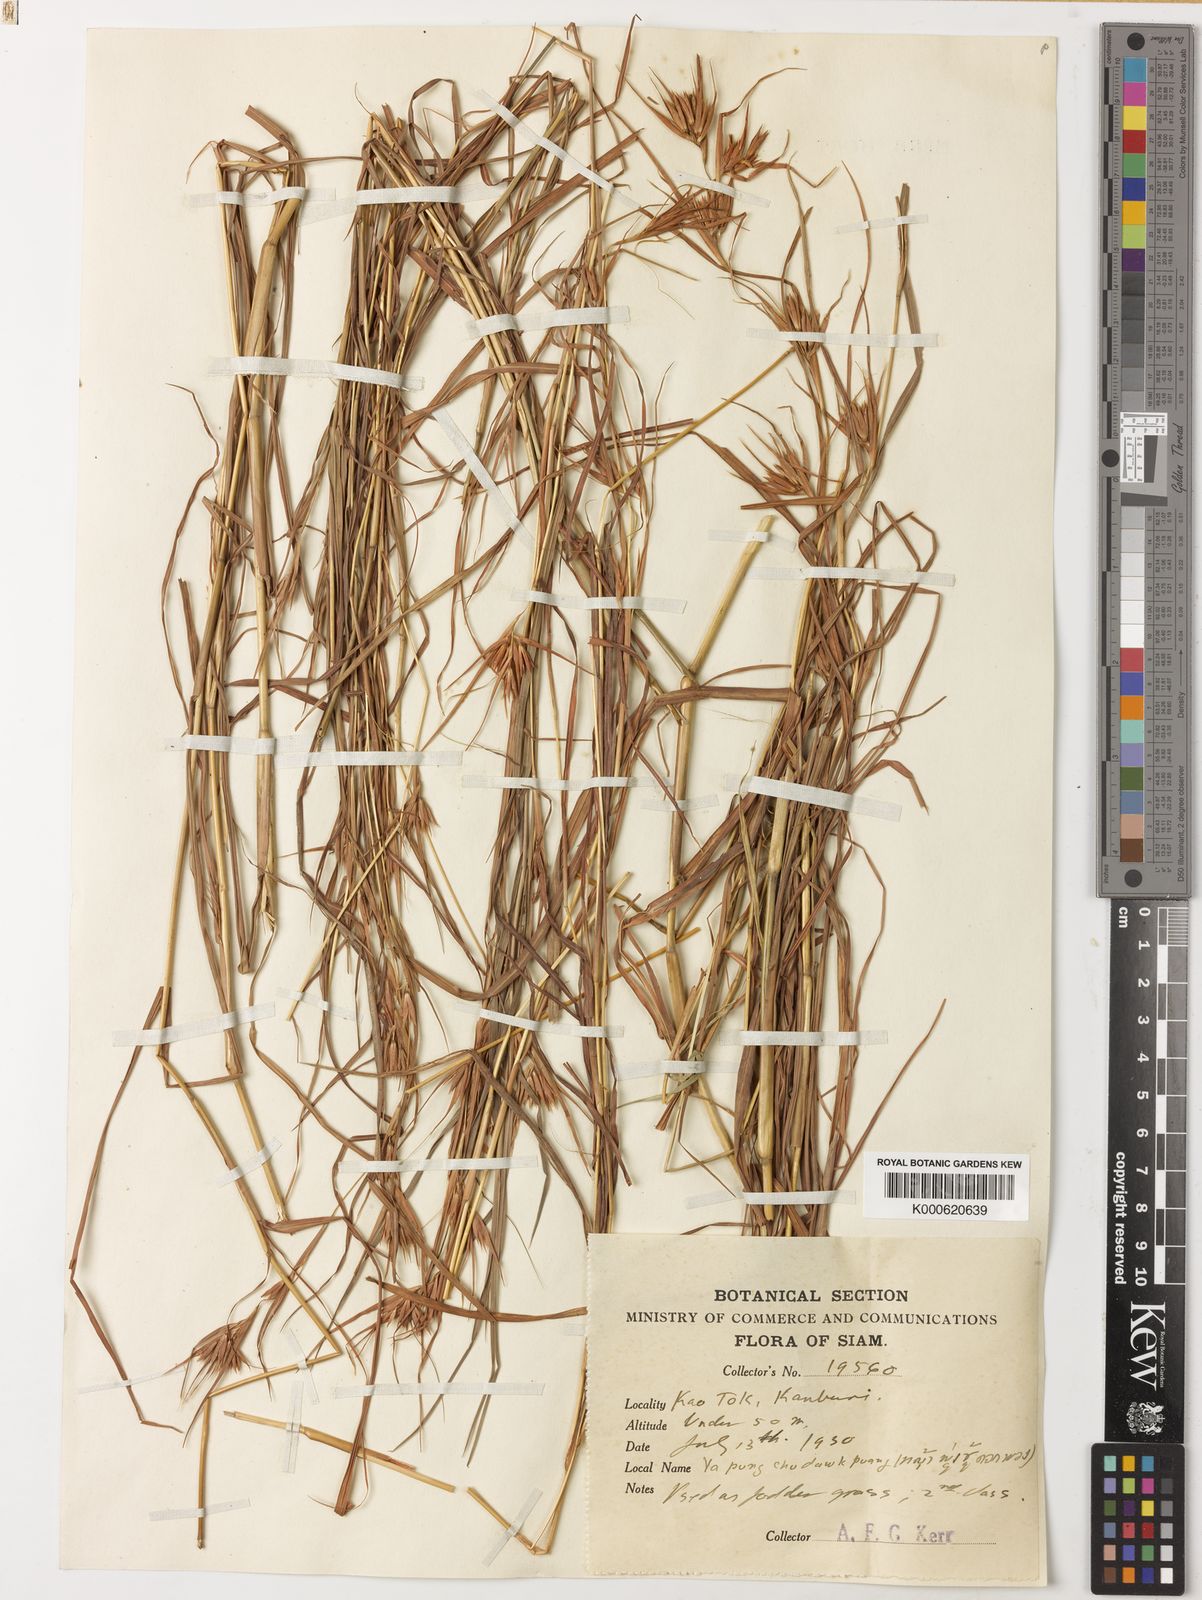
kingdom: Plantae
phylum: Tracheophyta
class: Liliopsida
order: Poales
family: Poaceae
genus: Themeda
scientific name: Themeda triandra
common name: Kangaroo grass
